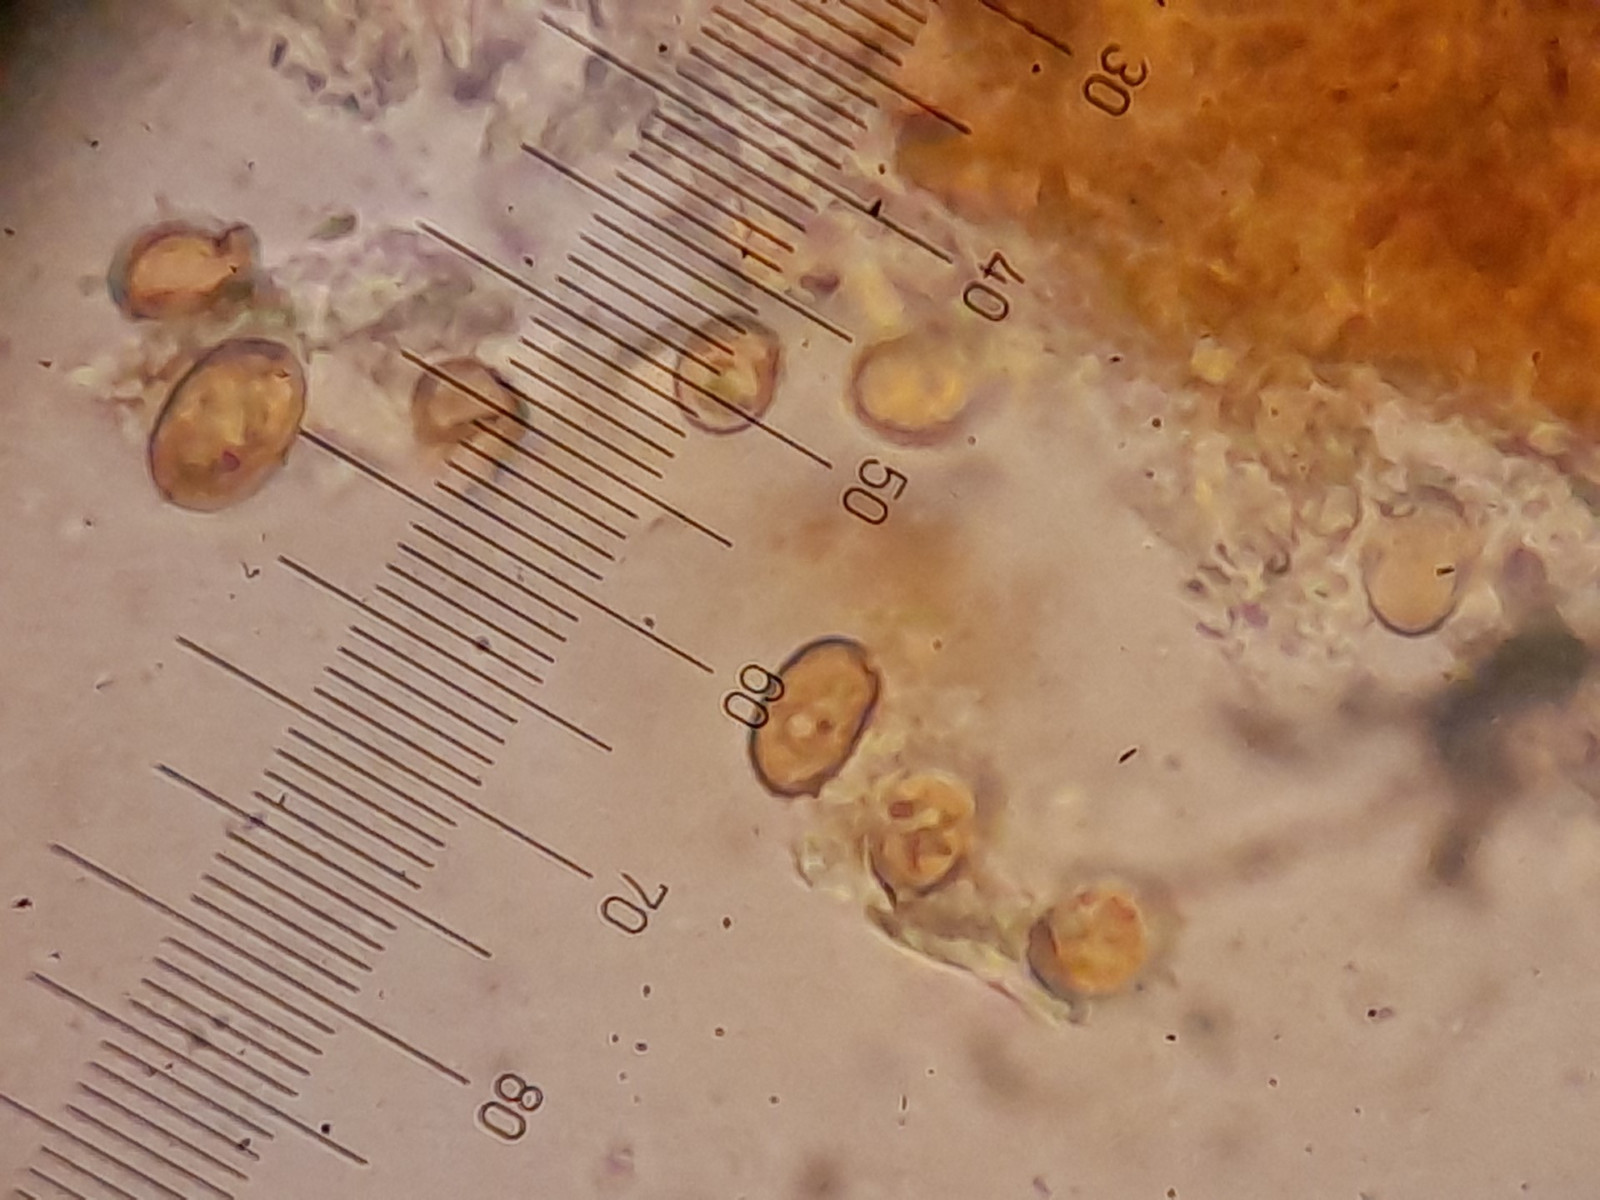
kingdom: Fungi
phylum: Basidiomycota
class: Agaricomycetes
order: Agaricales
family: Strophariaceae
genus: Pholiota
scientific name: Pholiota
